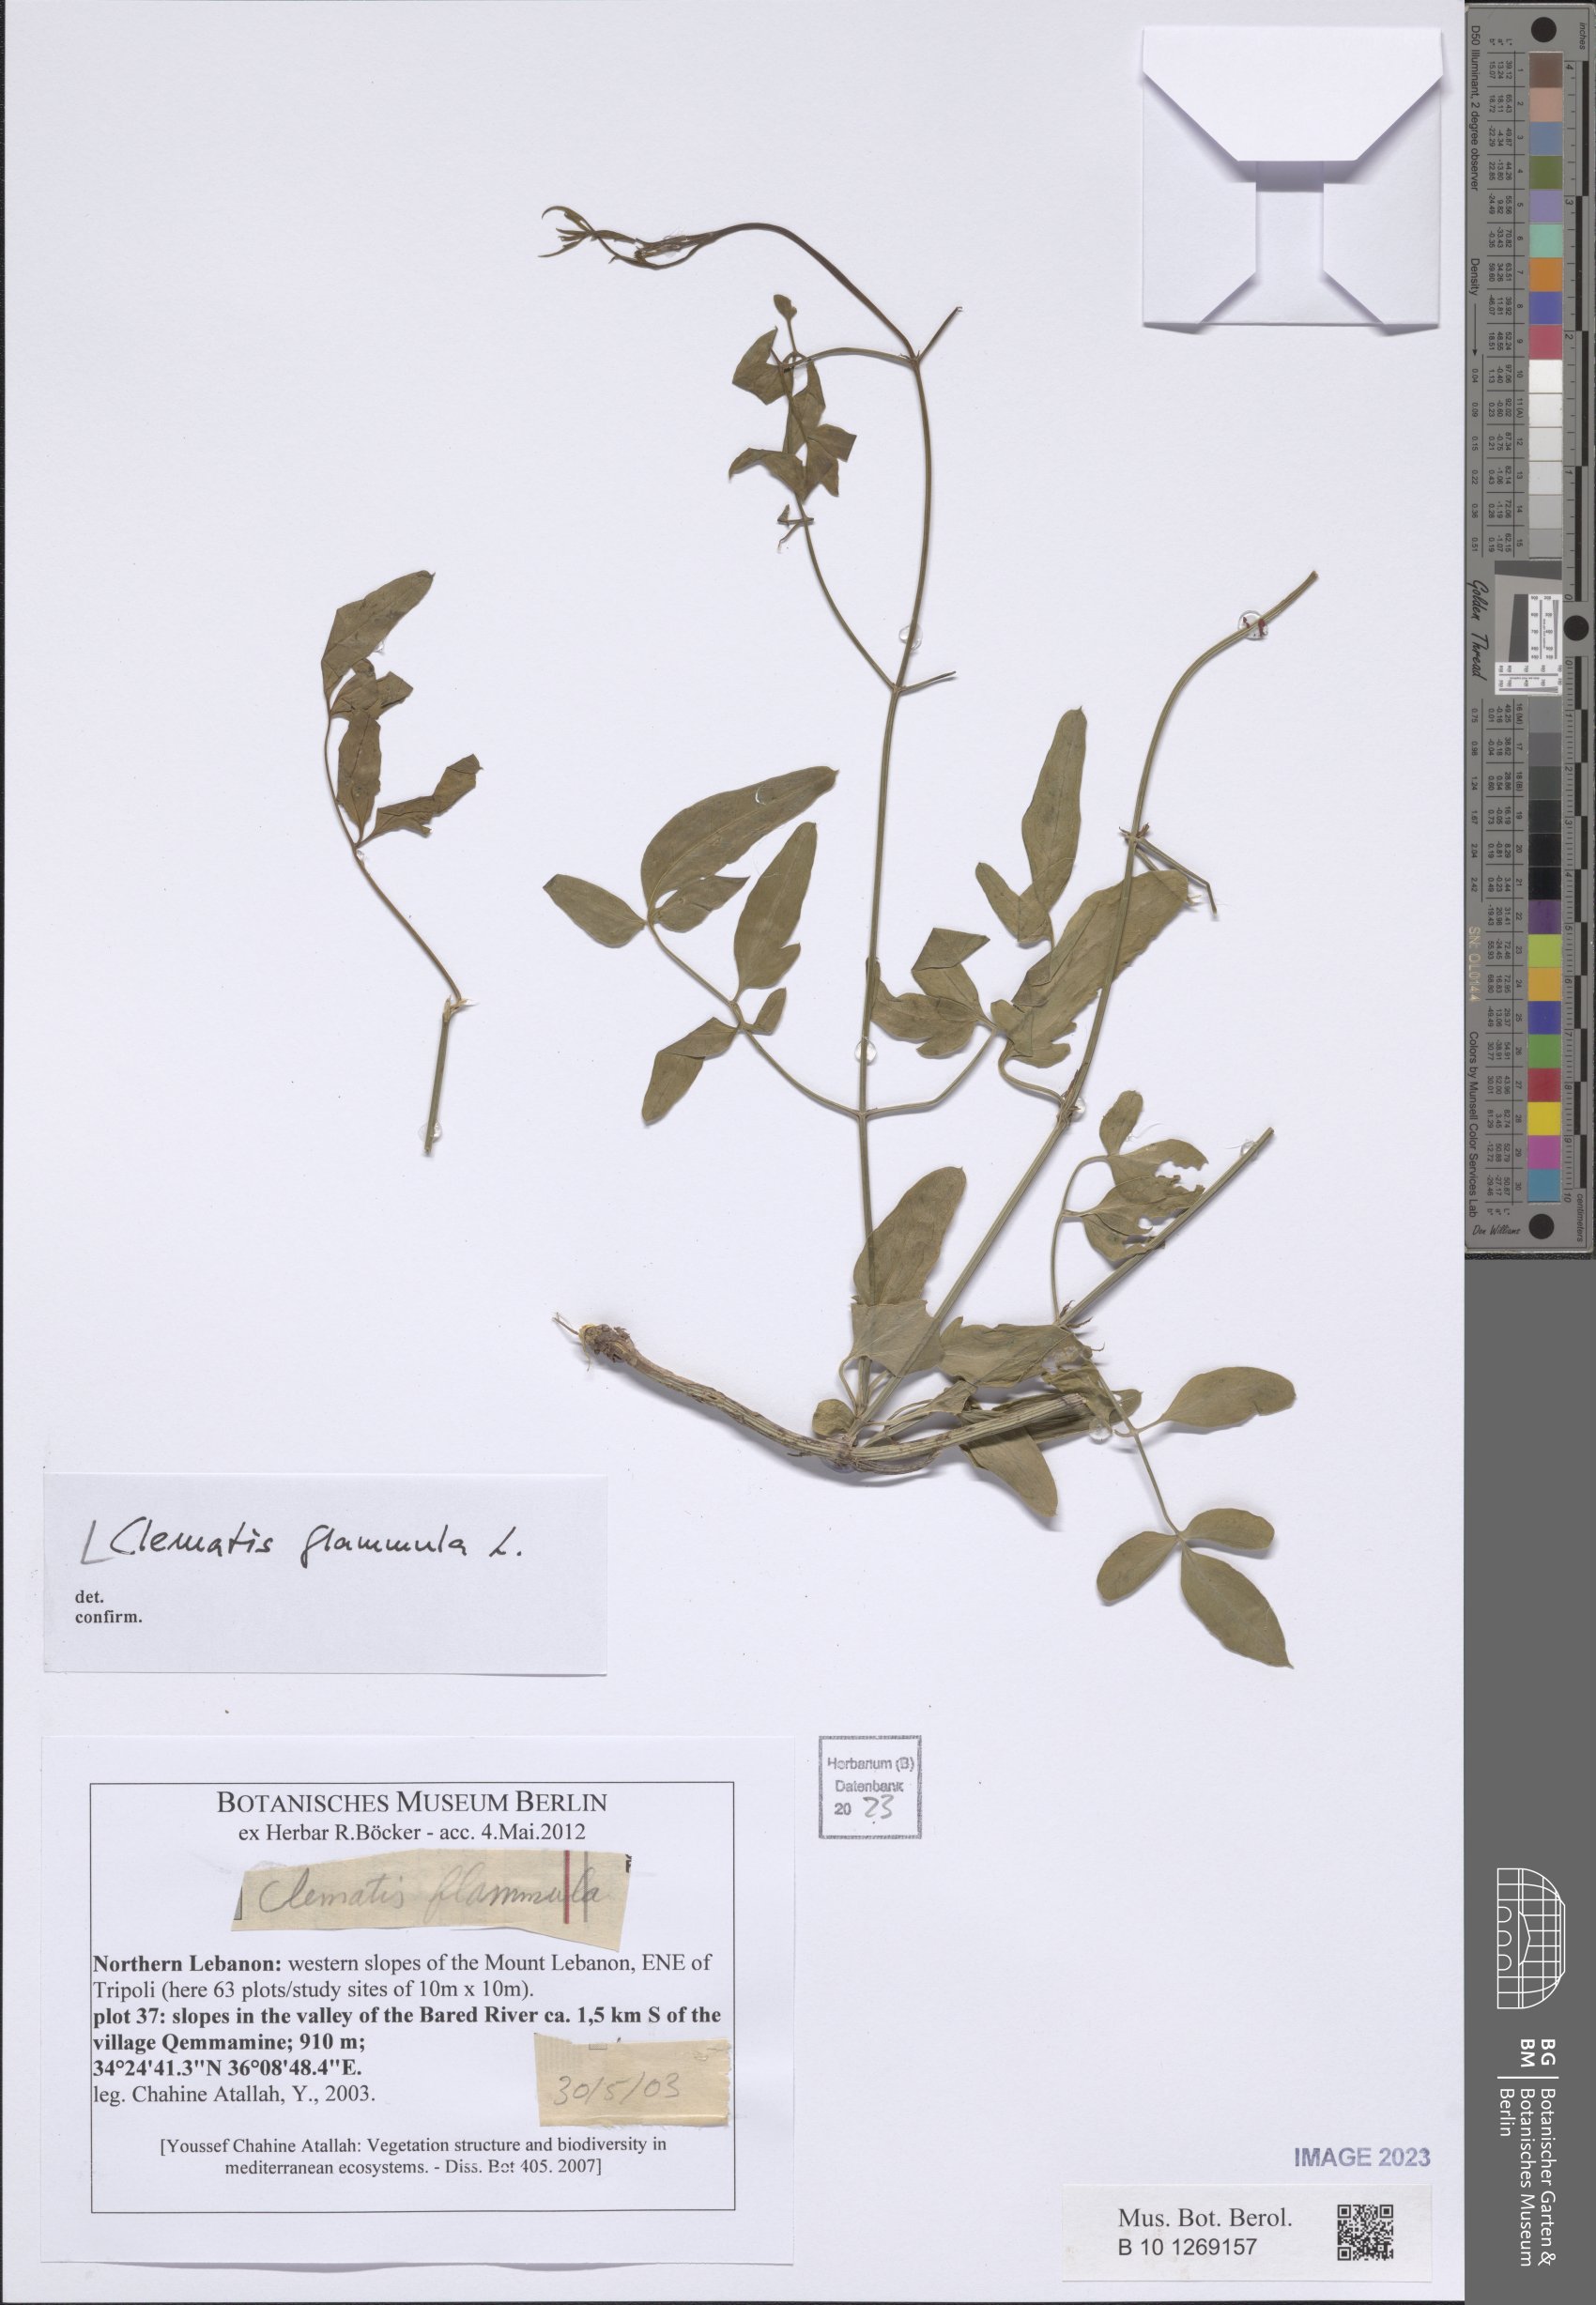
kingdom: Plantae
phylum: Tracheophyta
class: Magnoliopsida
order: Ranunculales
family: Ranunculaceae
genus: Clematis
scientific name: Clematis flammula
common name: Virgin's-bower
